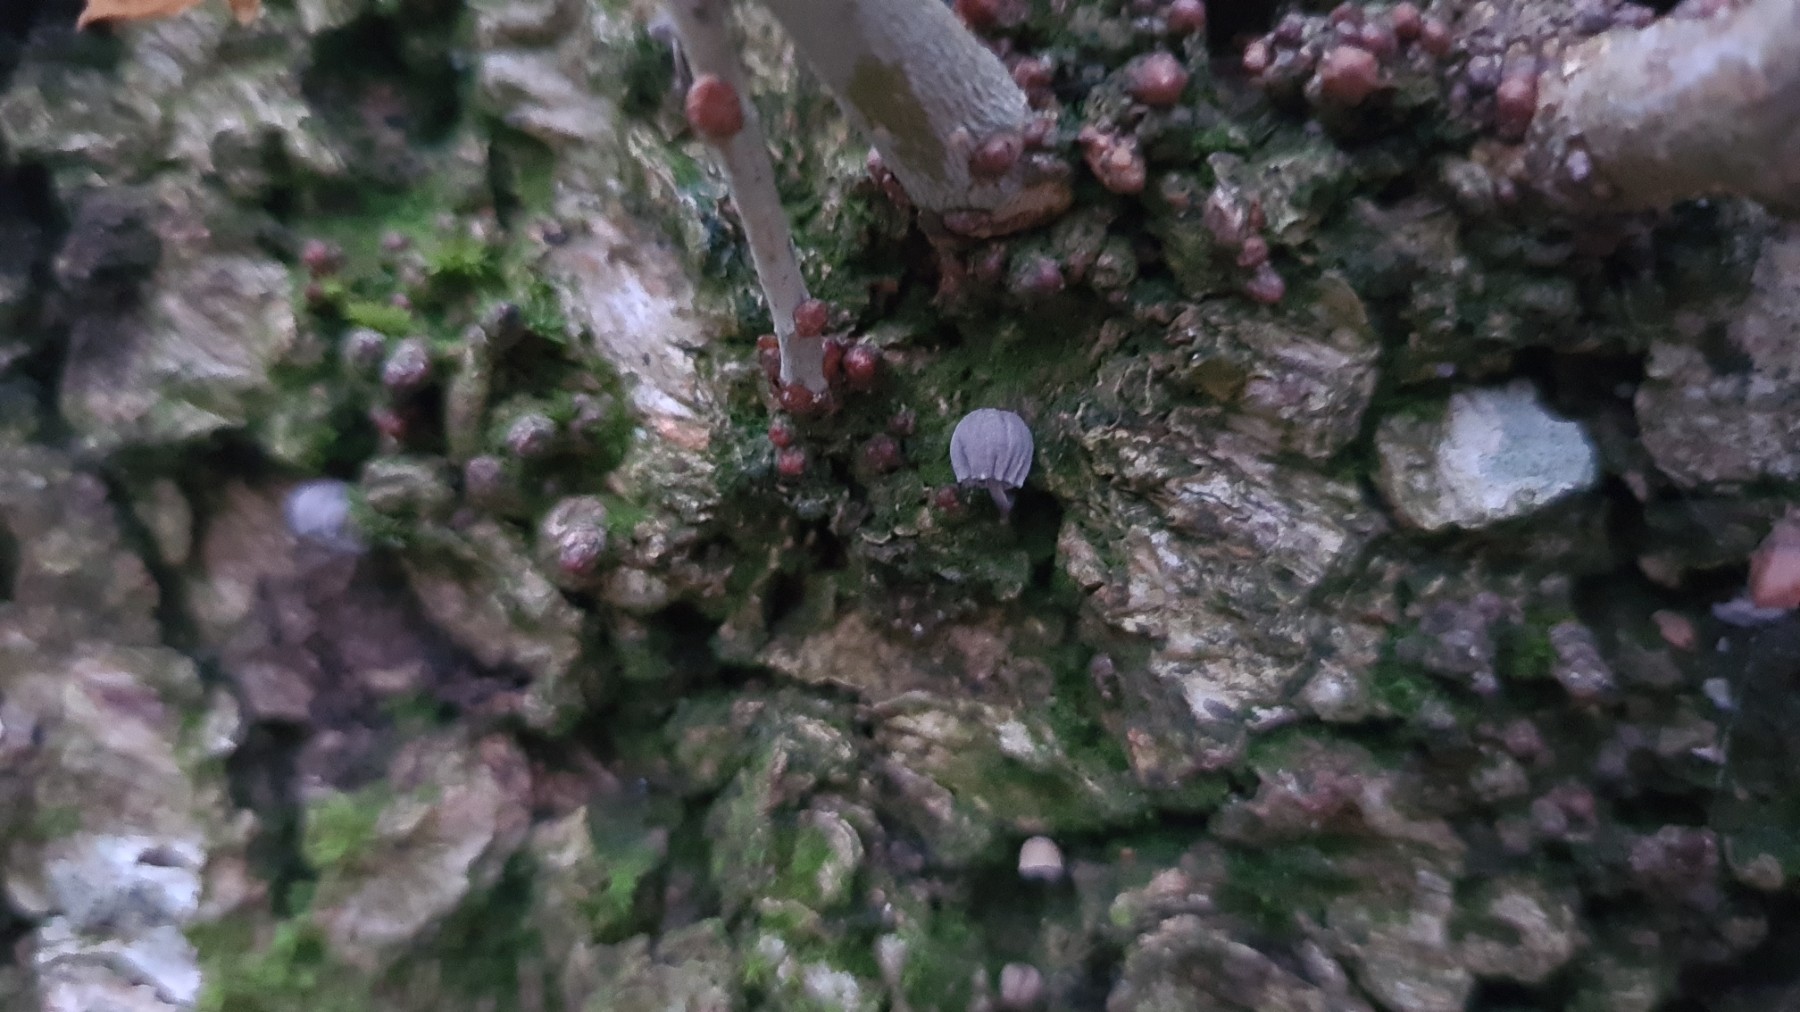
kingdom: Fungi
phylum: Basidiomycota
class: Agaricomycetes
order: Agaricales
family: Mycenaceae
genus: Mycena
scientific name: Mycena pseudocorticola
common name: gråblå bark-huesvamp
